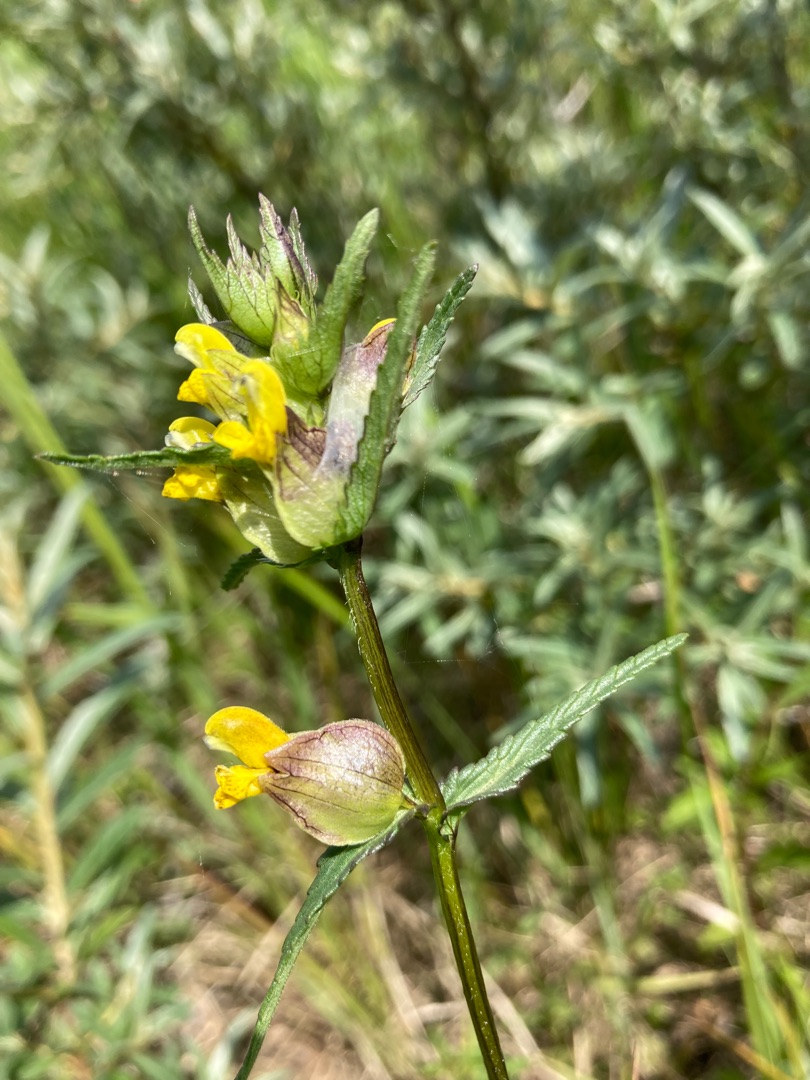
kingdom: Plantae
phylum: Tracheophyta
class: Magnoliopsida
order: Lamiales
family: Orobanchaceae
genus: Rhinanthus
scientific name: Rhinanthus minor
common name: Liden skjaller
